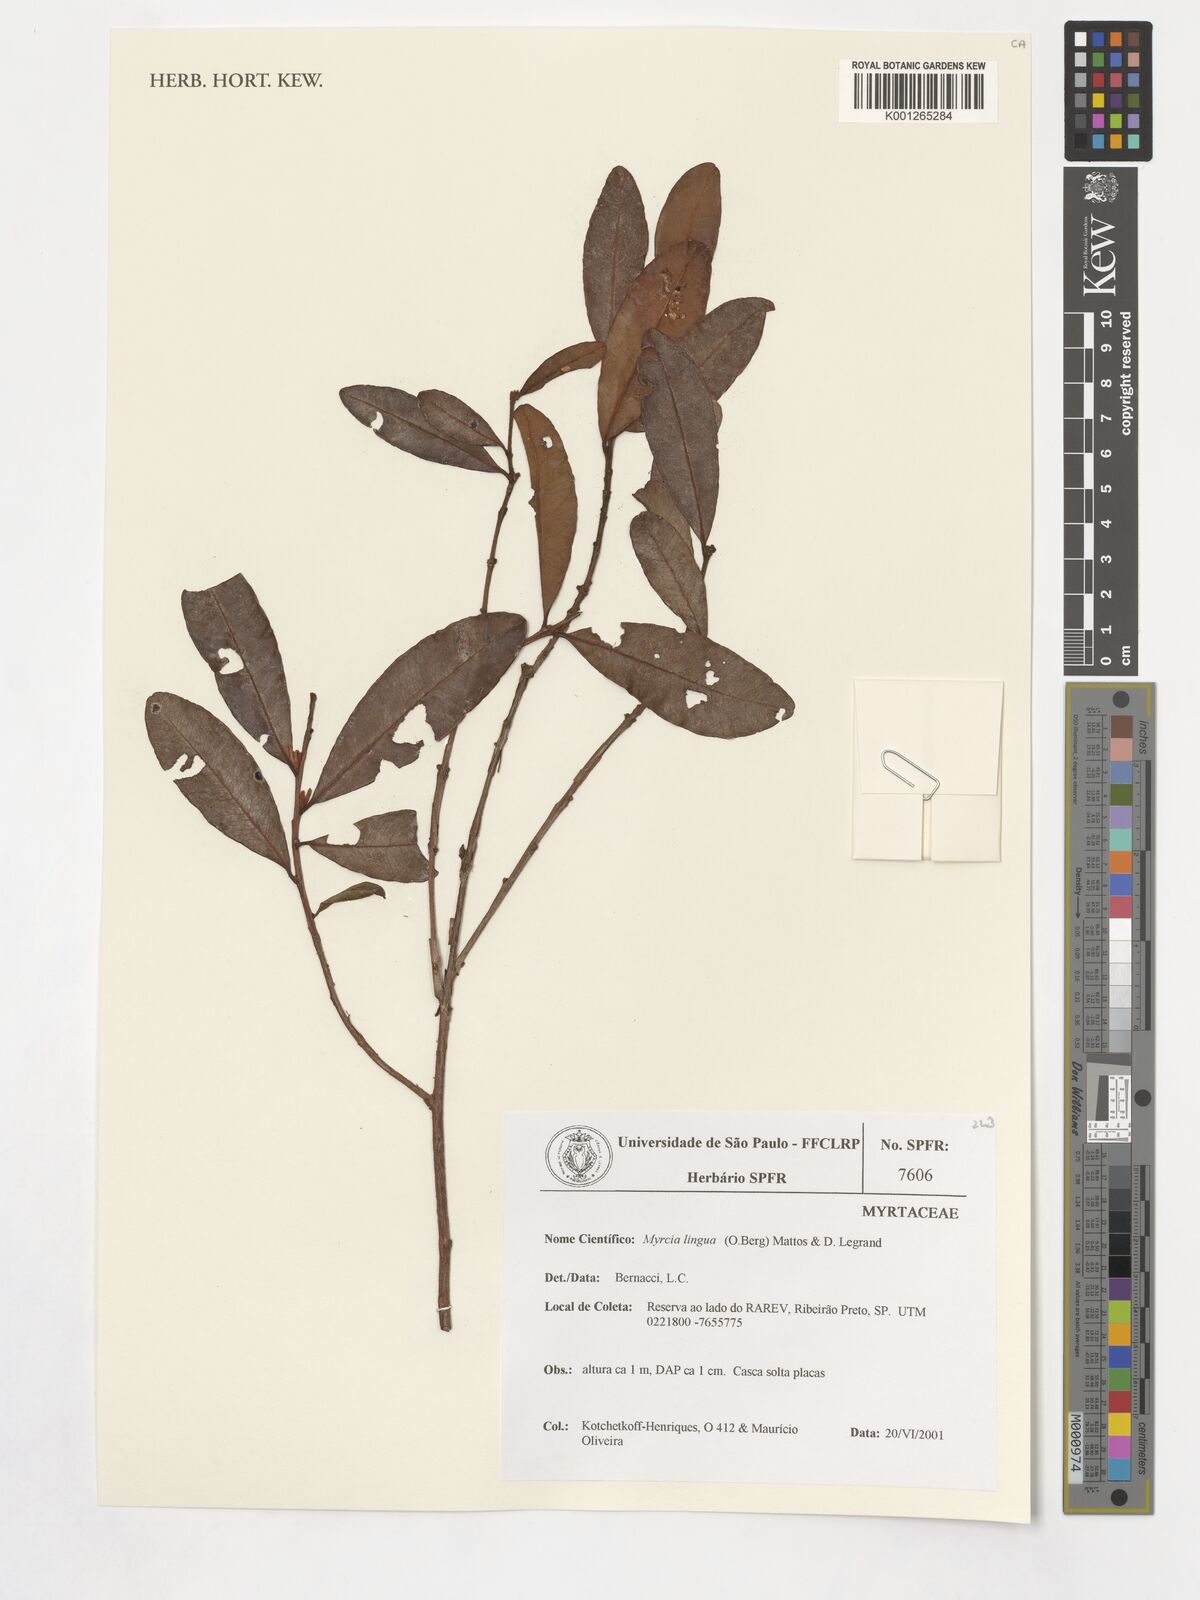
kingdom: Plantae
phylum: Tracheophyta
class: Magnoliopsida
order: Myrtales
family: Myrtaceae
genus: Myrcia
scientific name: Myrcia guianensis
